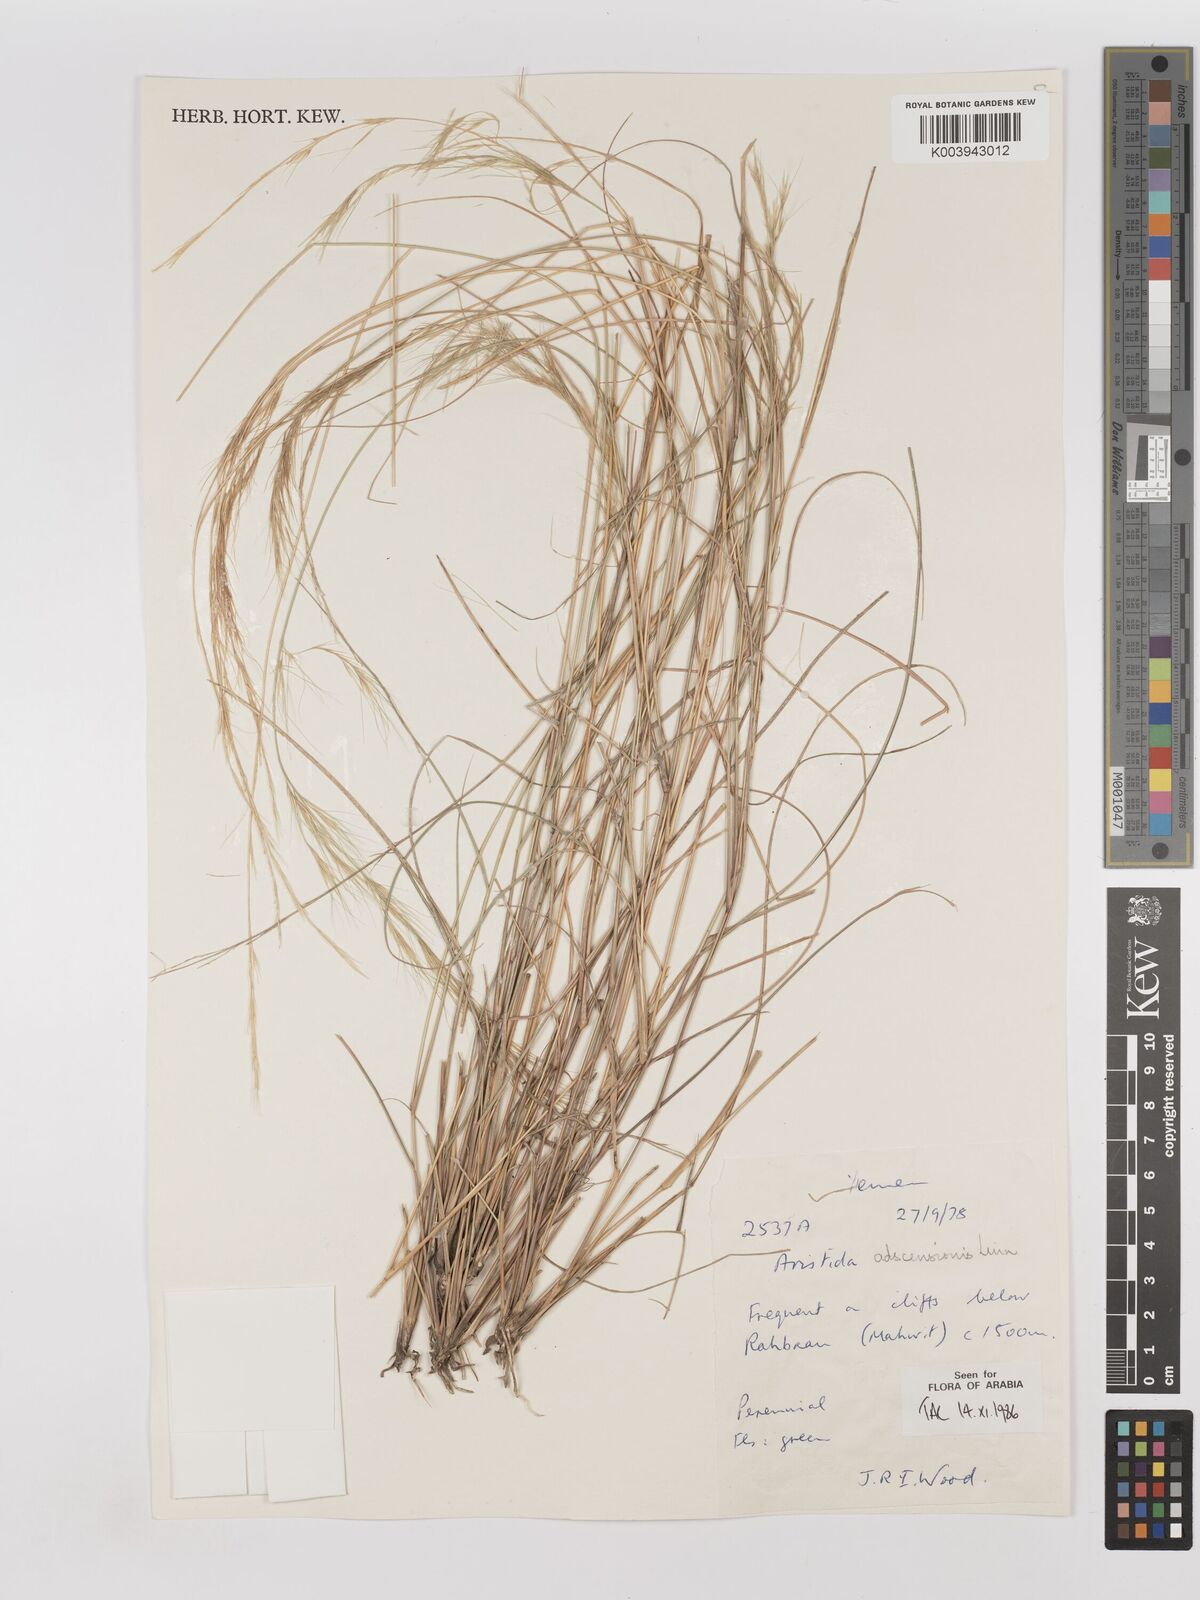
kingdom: Plantae
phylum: Tracheophyta
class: Liliopsida
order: Poales
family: Poaceae
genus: Aristida
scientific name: Aristida adscensionis
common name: Sixweeks threeawn
